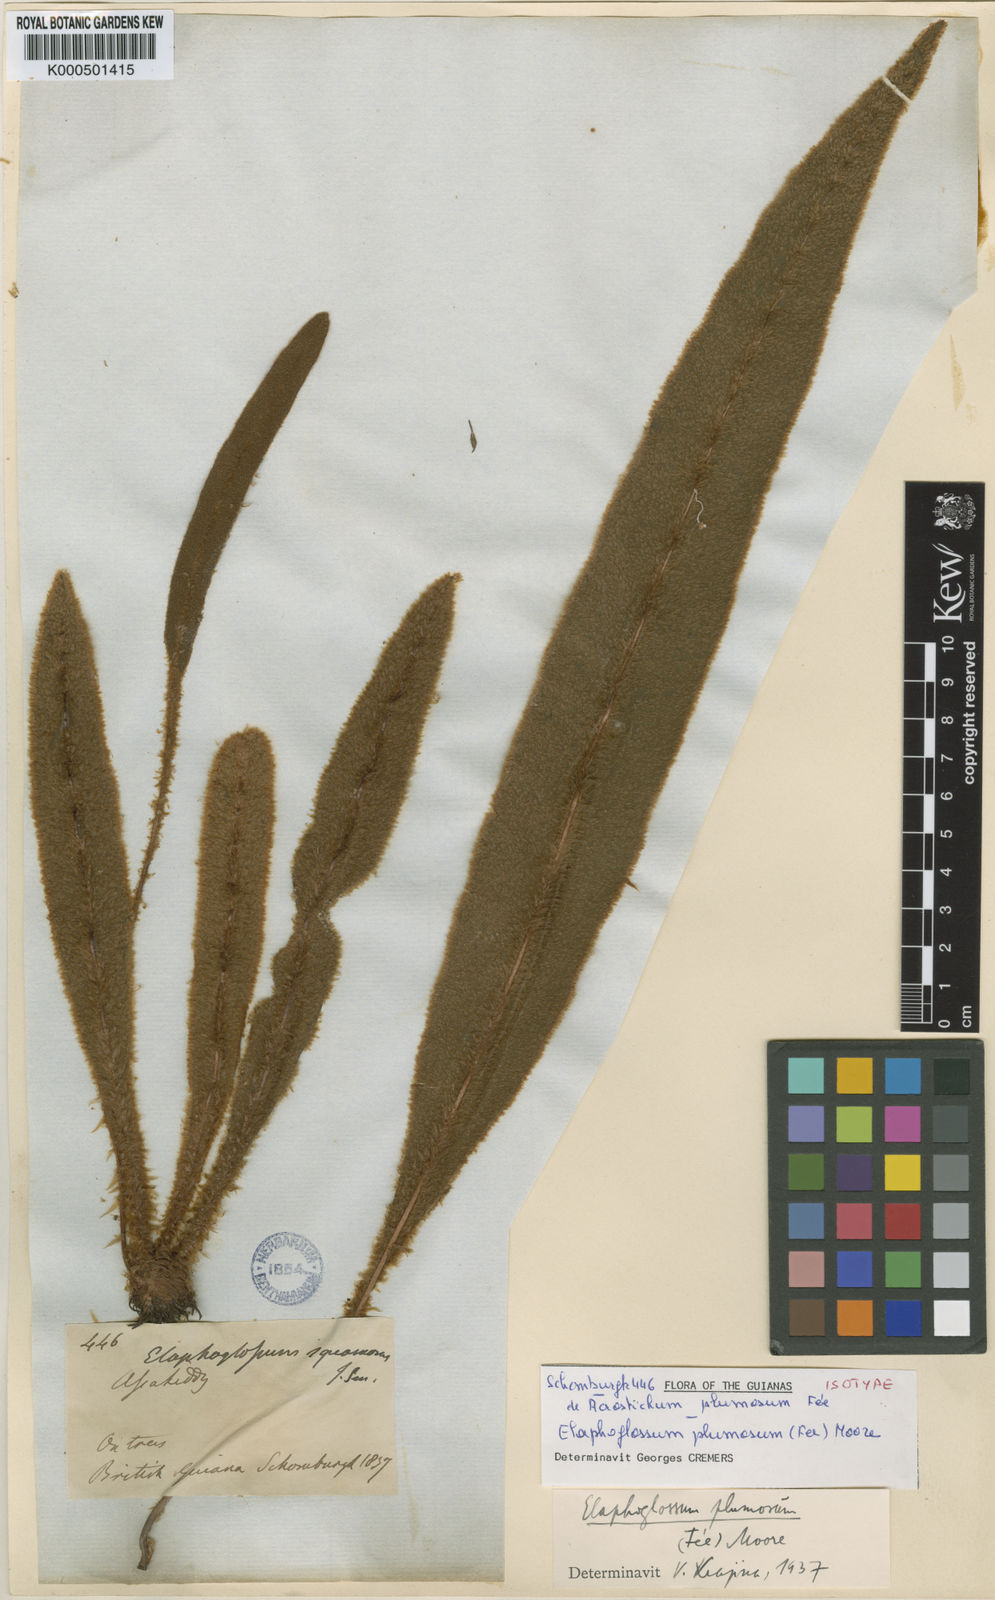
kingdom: Plantae
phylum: Tracheophyta
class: Polypodiopsida
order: Polypodiales
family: Dryopteridaceae
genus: Elaphoglossum
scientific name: Elaphoglossum
